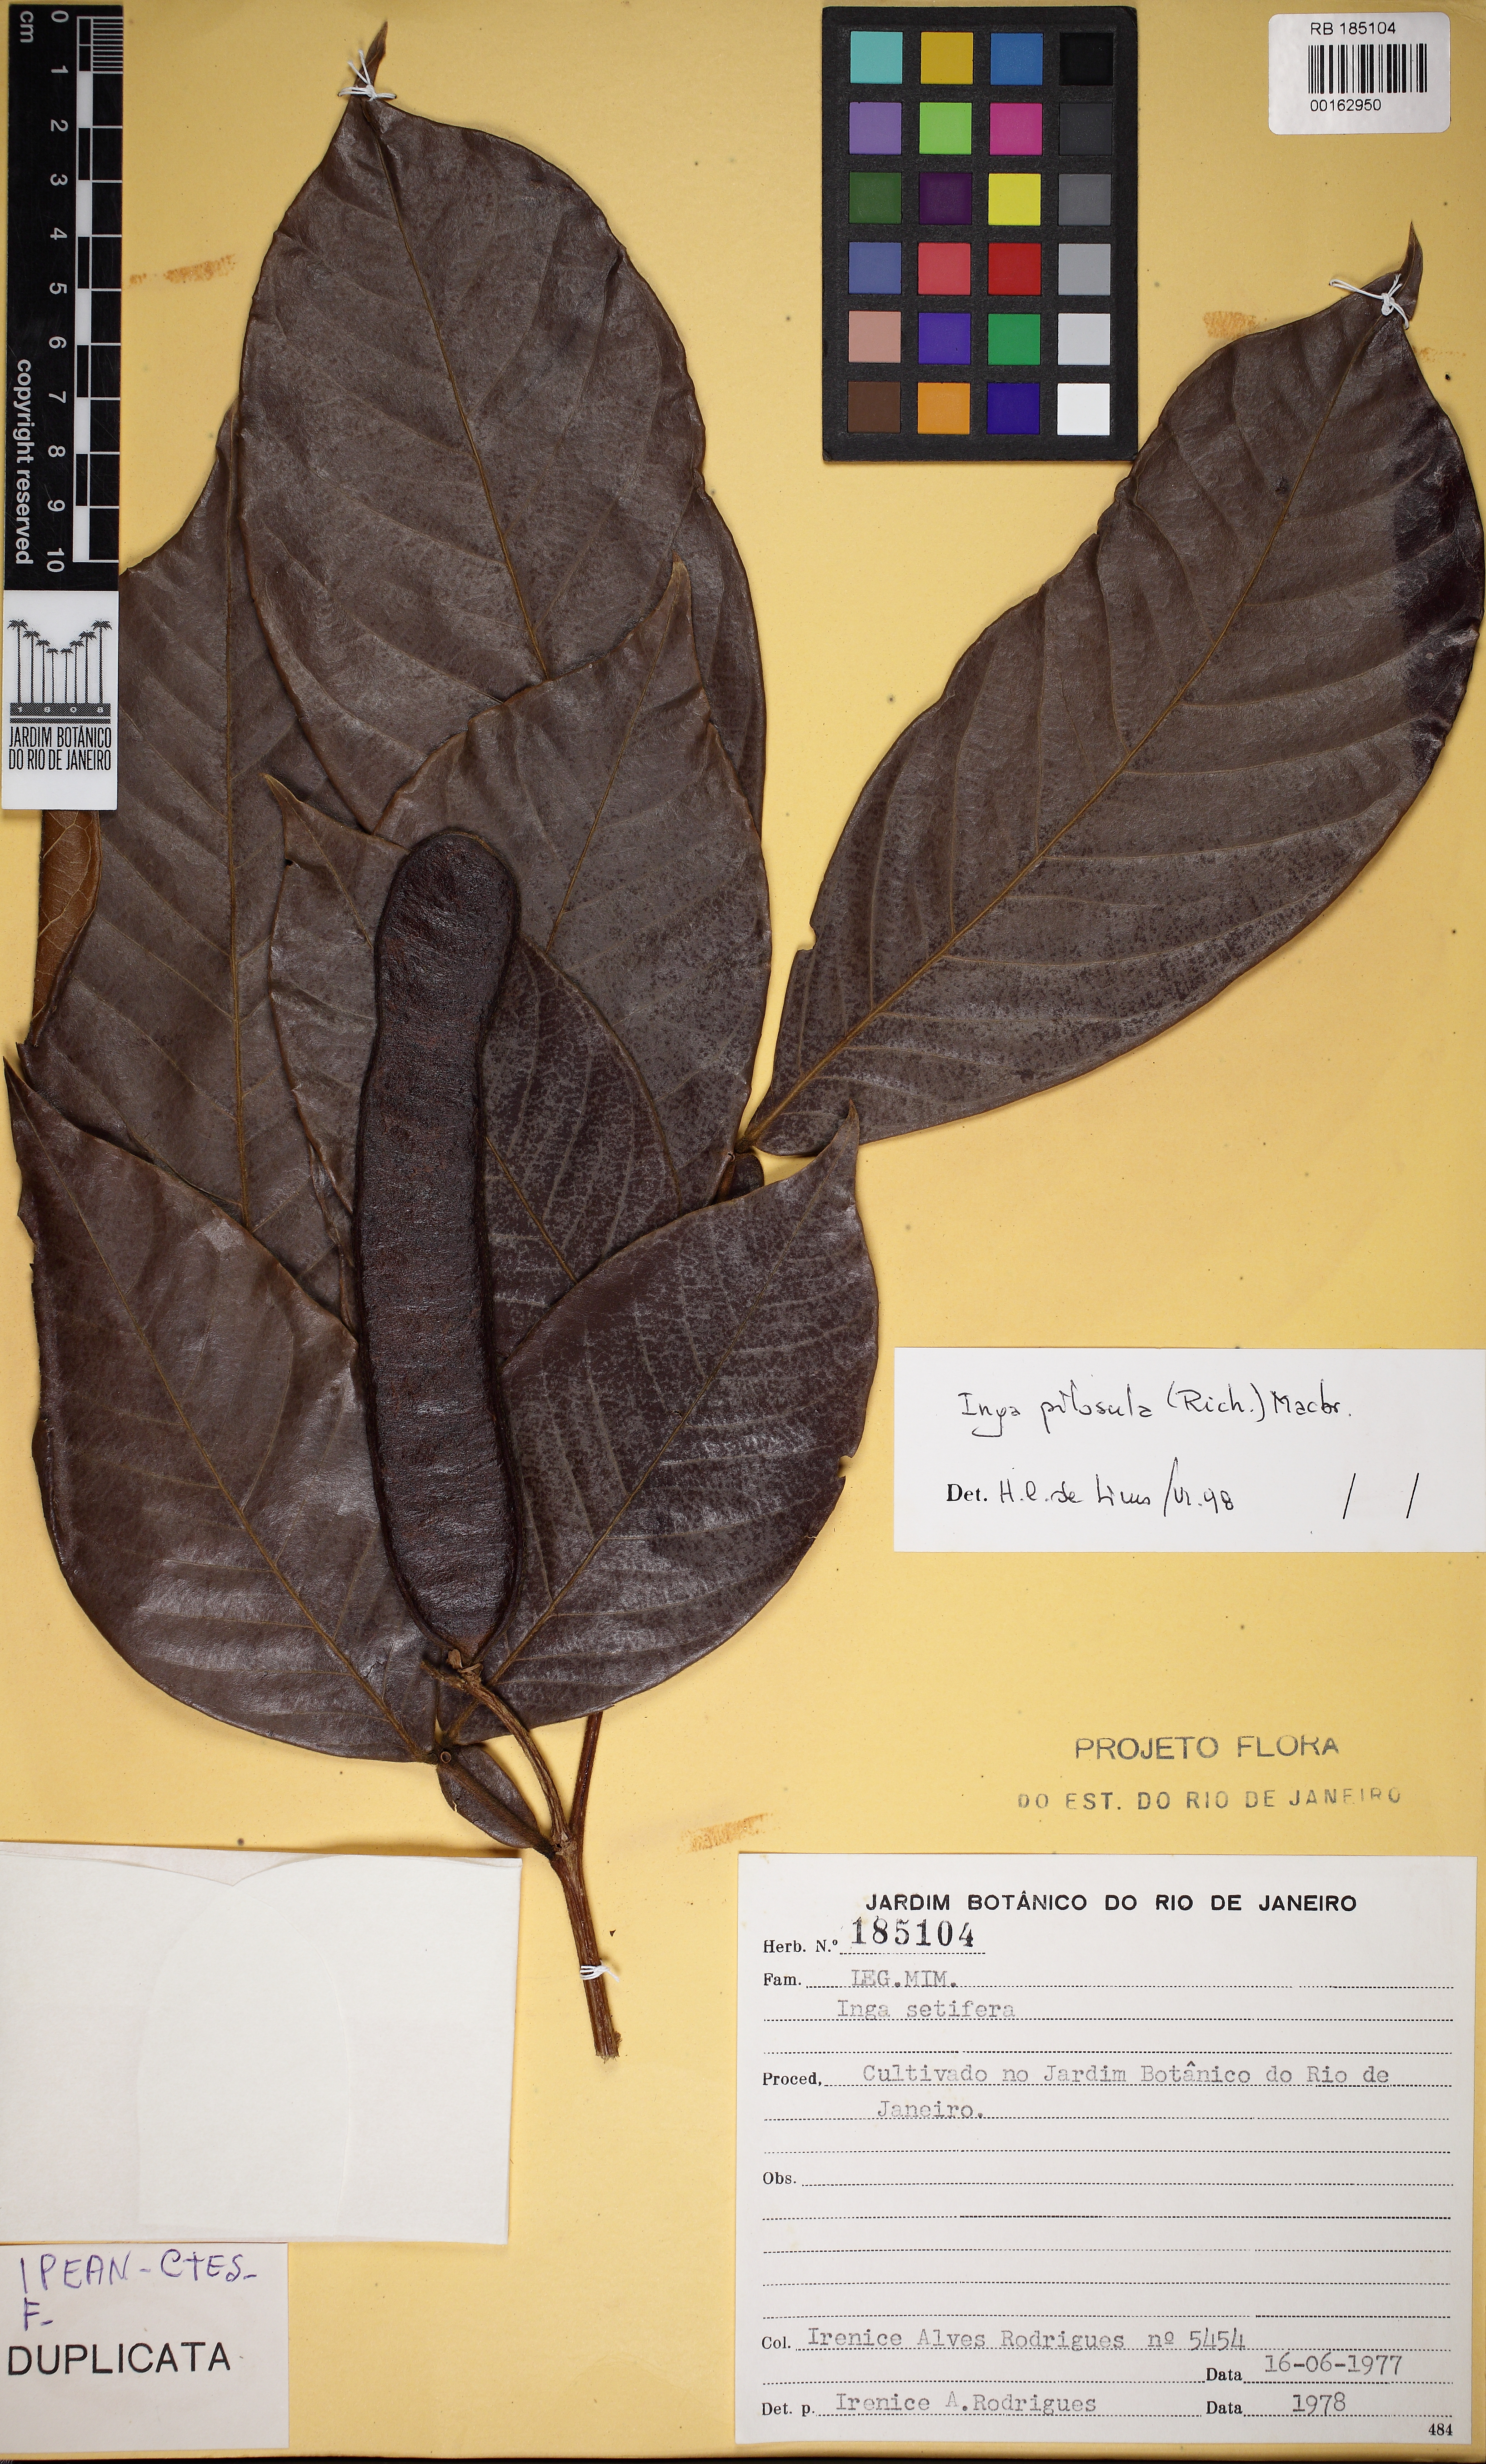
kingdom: Plantae
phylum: Tracheophyta
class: Magnoliopsida
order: Fabales
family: Fabaceae
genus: Inga
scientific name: Inga pilosula
